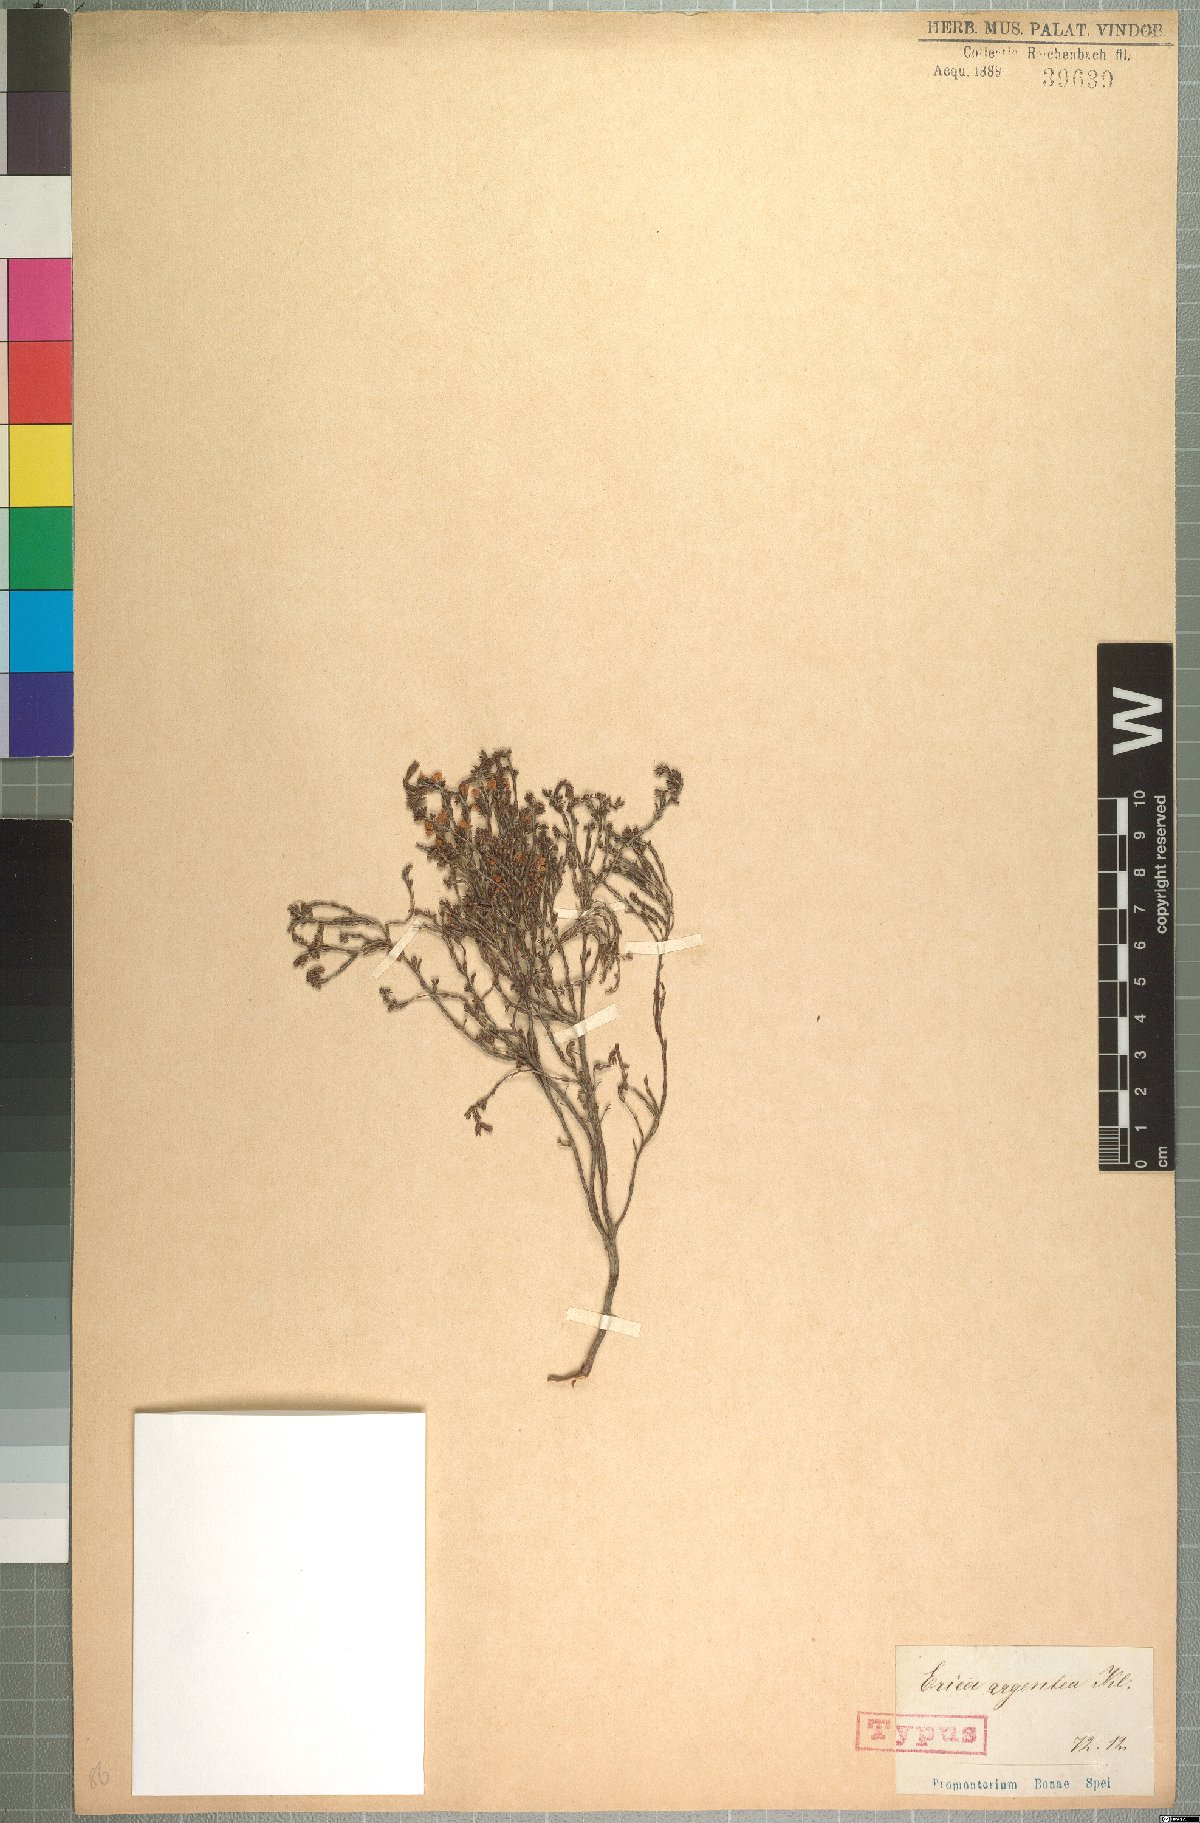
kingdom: Plantae
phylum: Tracheophyta
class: Magnoliopsida
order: Ericales
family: Ericaceae
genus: Erica
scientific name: Erica argentea
